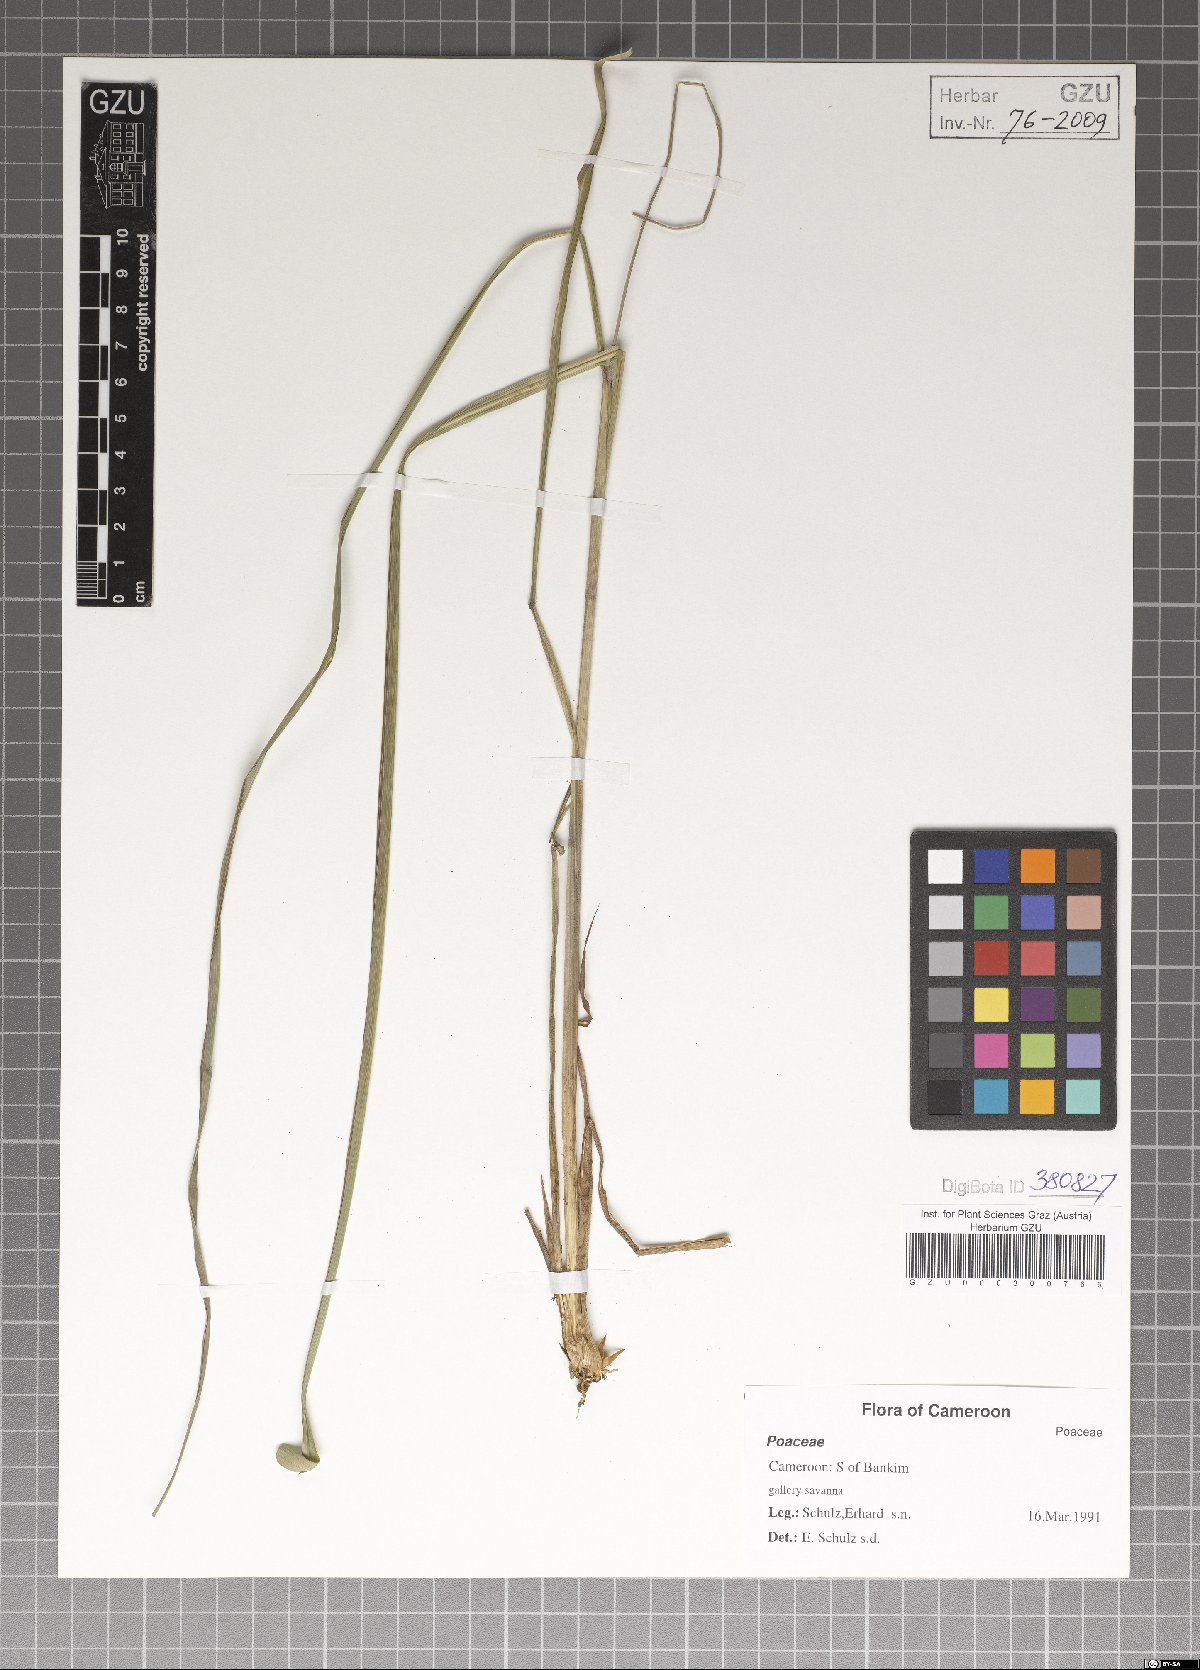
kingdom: Plantae
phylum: Tracheophyta
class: Liliopsida
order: Poales
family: Poaceae
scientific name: Poaceae
